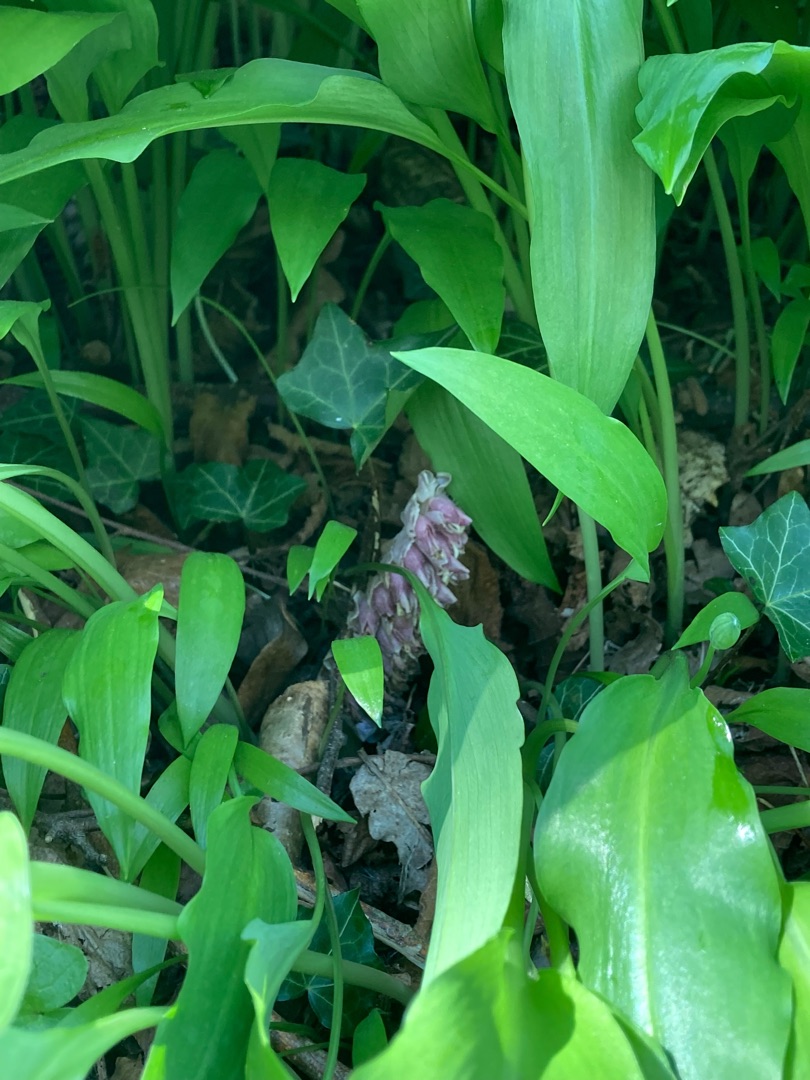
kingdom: Plantae
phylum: Tracheophyta
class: Magnoliopsida
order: Lamiales
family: Orobanchaceae
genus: Lathraea
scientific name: Lathraea squamaria
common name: Skælrod
